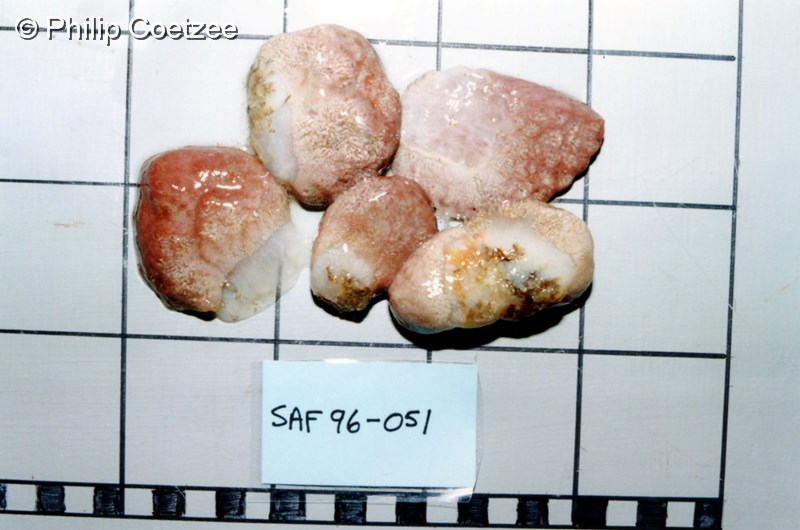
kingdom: Animalia
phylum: Chordata
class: Ascidiacea
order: Aplousobranchia
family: Holozoidae
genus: Sigillina
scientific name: Sigillina
